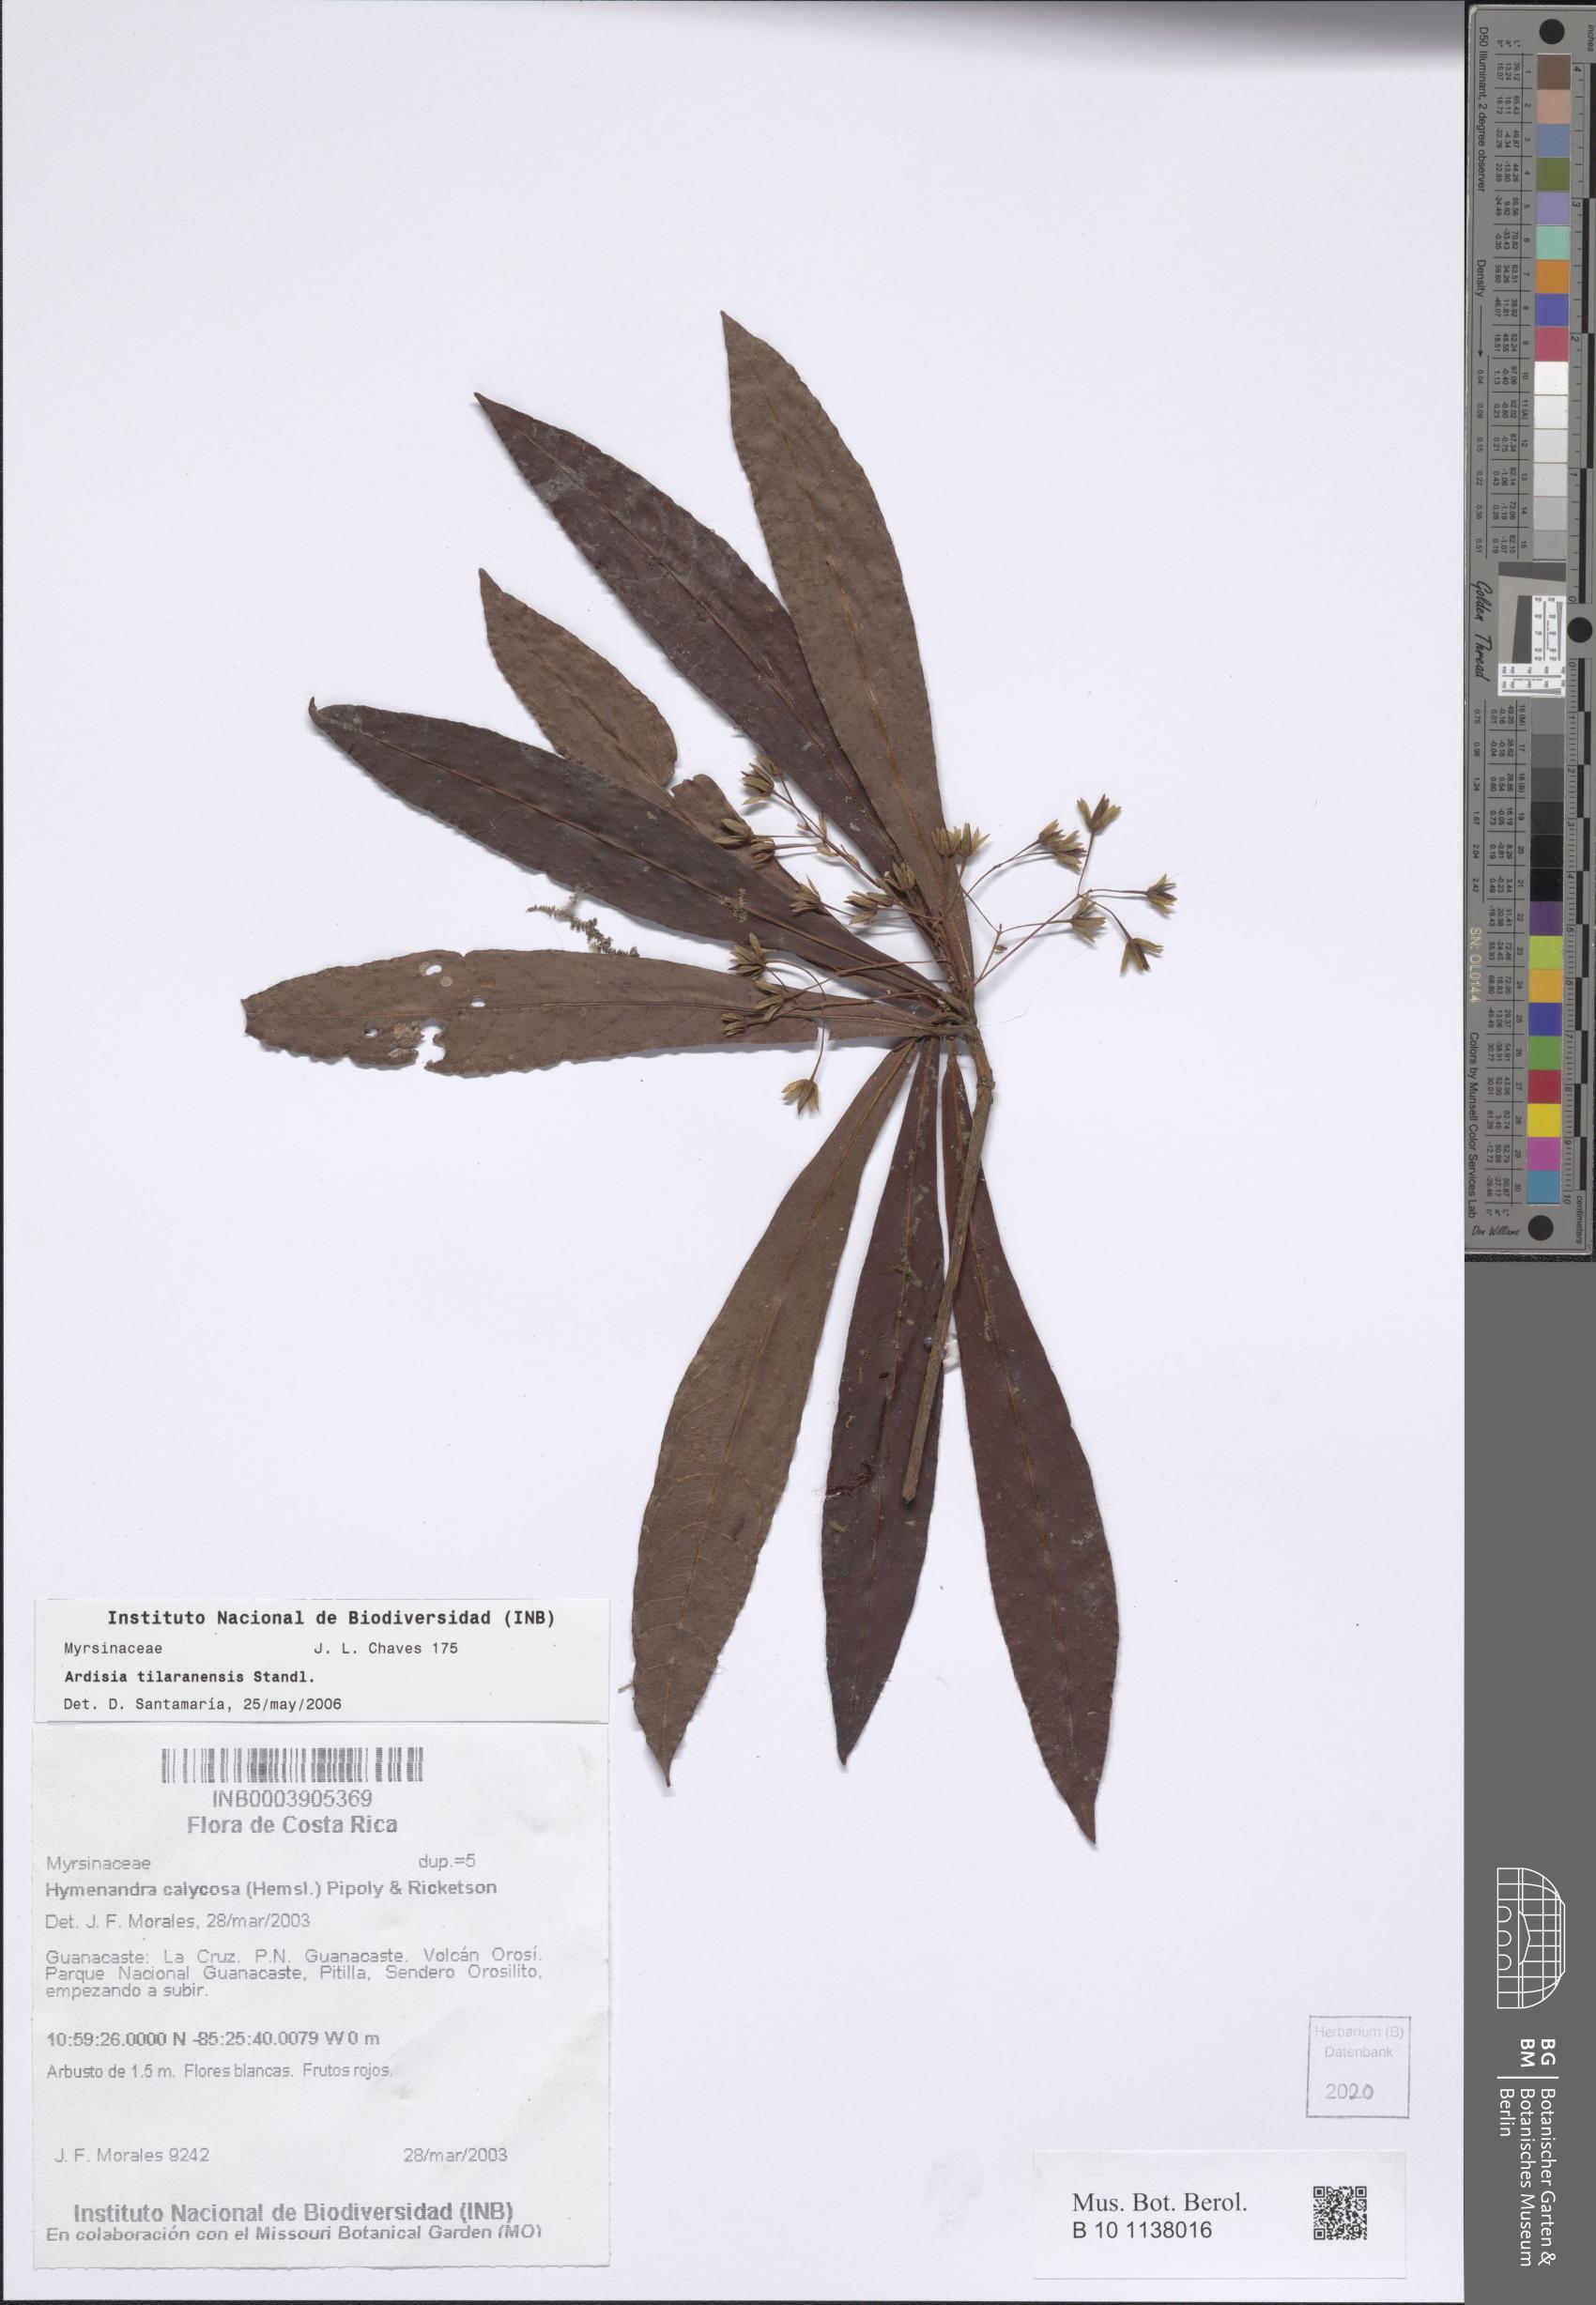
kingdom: Plantae
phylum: Tracheophyta
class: Magnoliopsida
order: Ericales
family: Primulaceae
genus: Hymenandra
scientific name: Hymenandra calycosa
